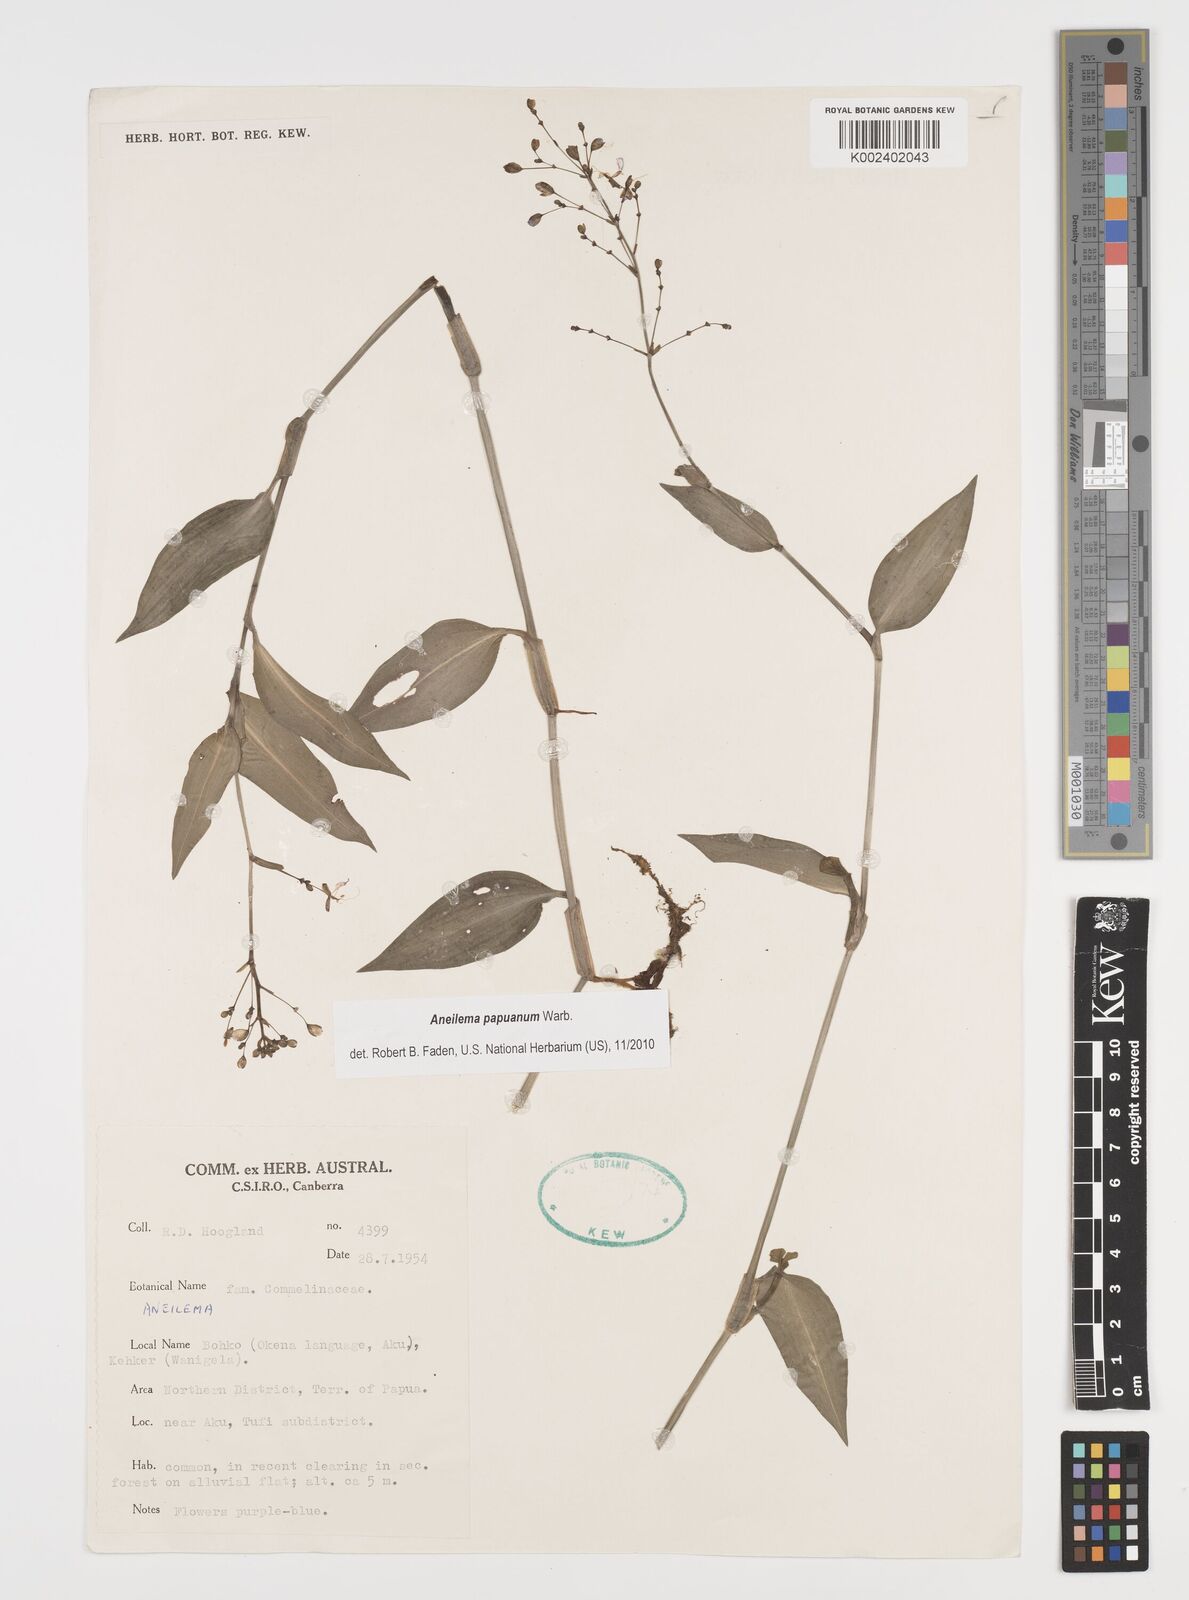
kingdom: Plantae
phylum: Tracheophyta
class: Liliopsida
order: Commelinales
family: Commelinaceae
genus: Aneilema
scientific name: Aneilema acuminatum
